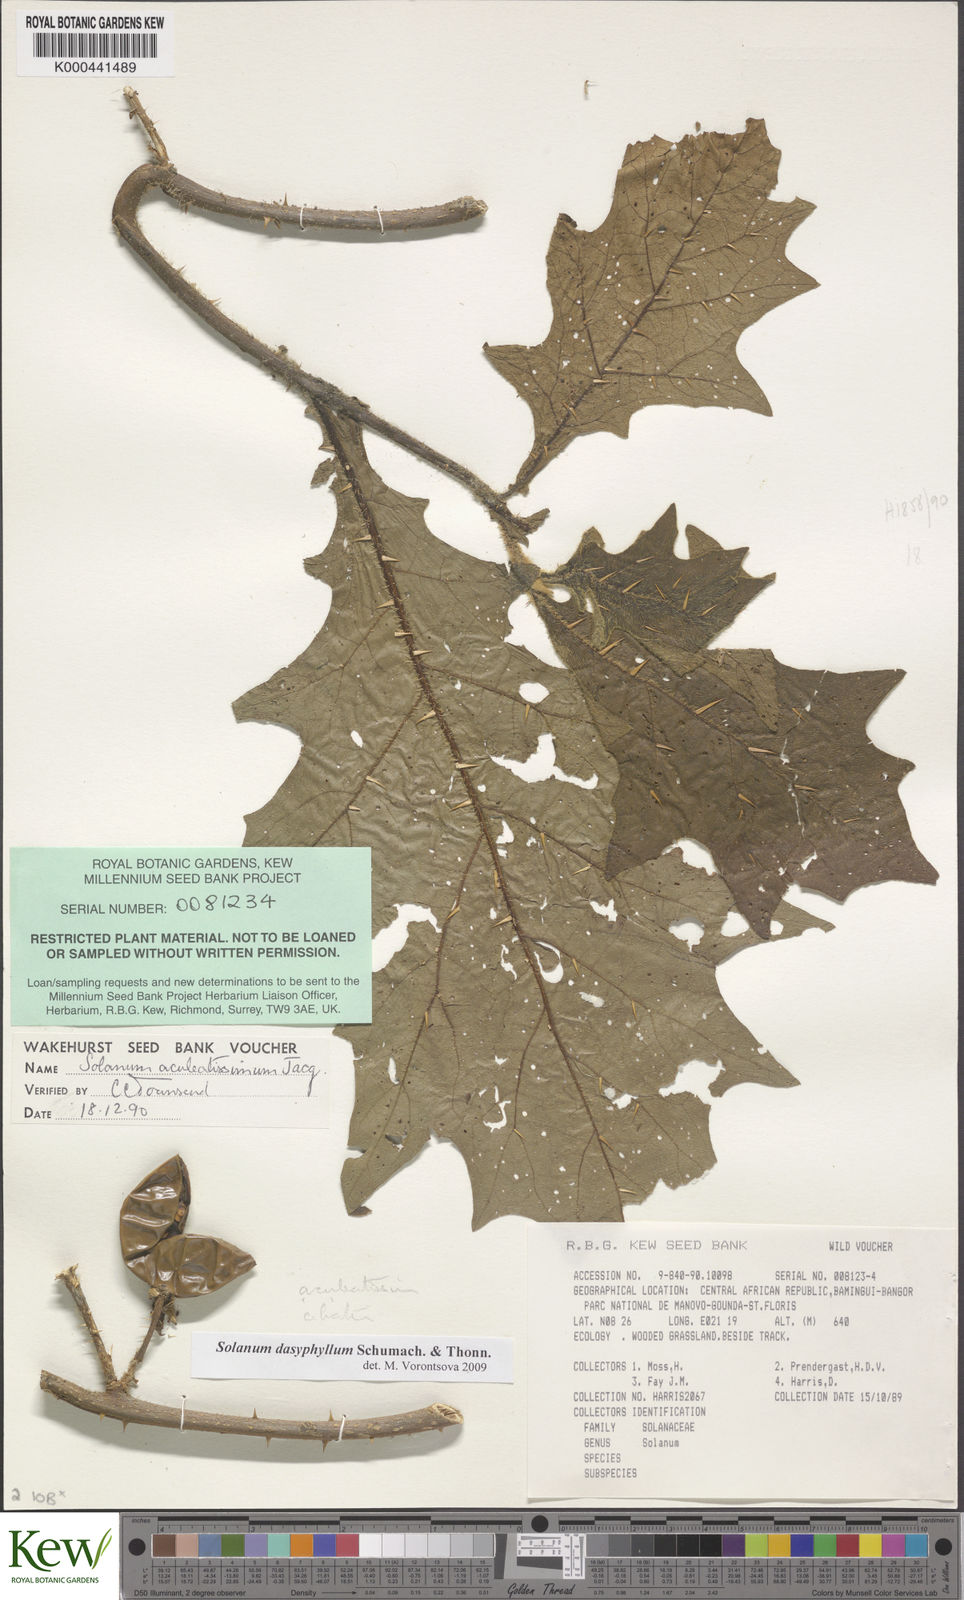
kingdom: Plantae
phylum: Tracheophyta
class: Magnoliopsida
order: Solanales
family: Solanaceae
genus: Solanum
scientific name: Solanum dasyphyllum
